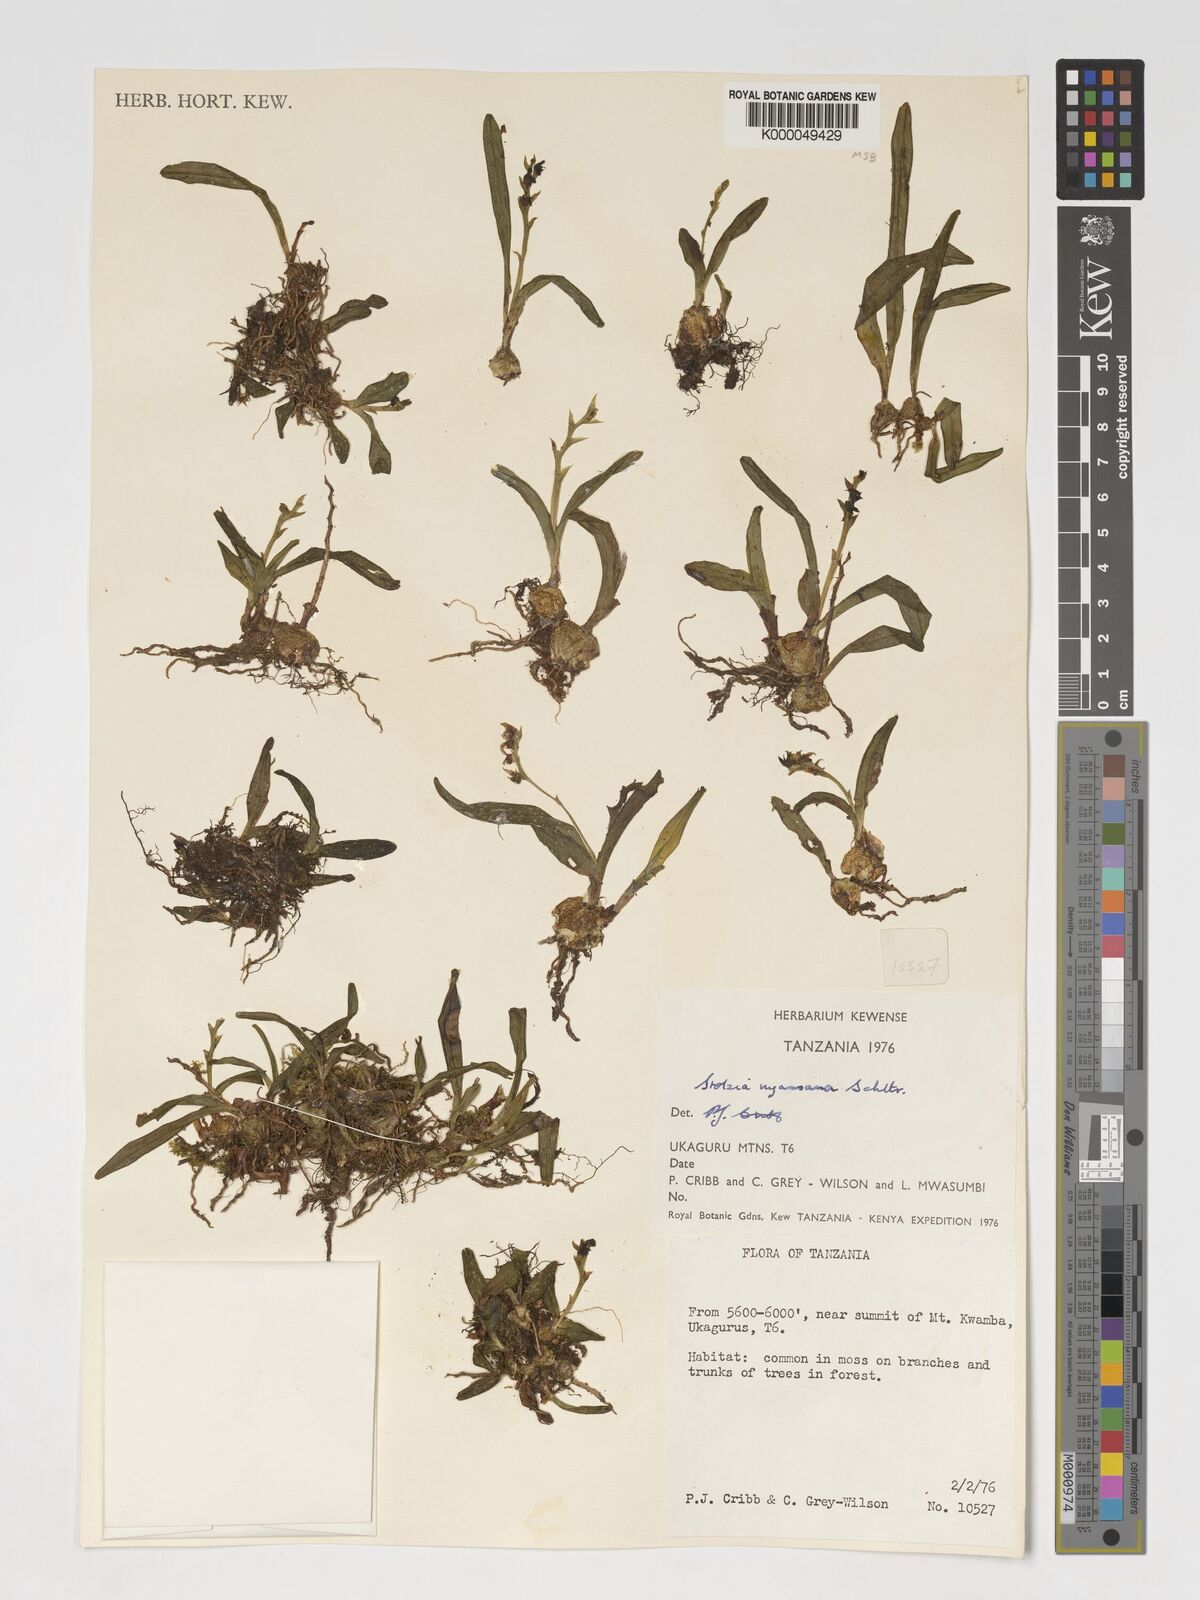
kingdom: Plantae
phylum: Tracheophyta
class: Liliopsida
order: Asparagales
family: Orchidaceae
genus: Porpax
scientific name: Porpax nyassana
